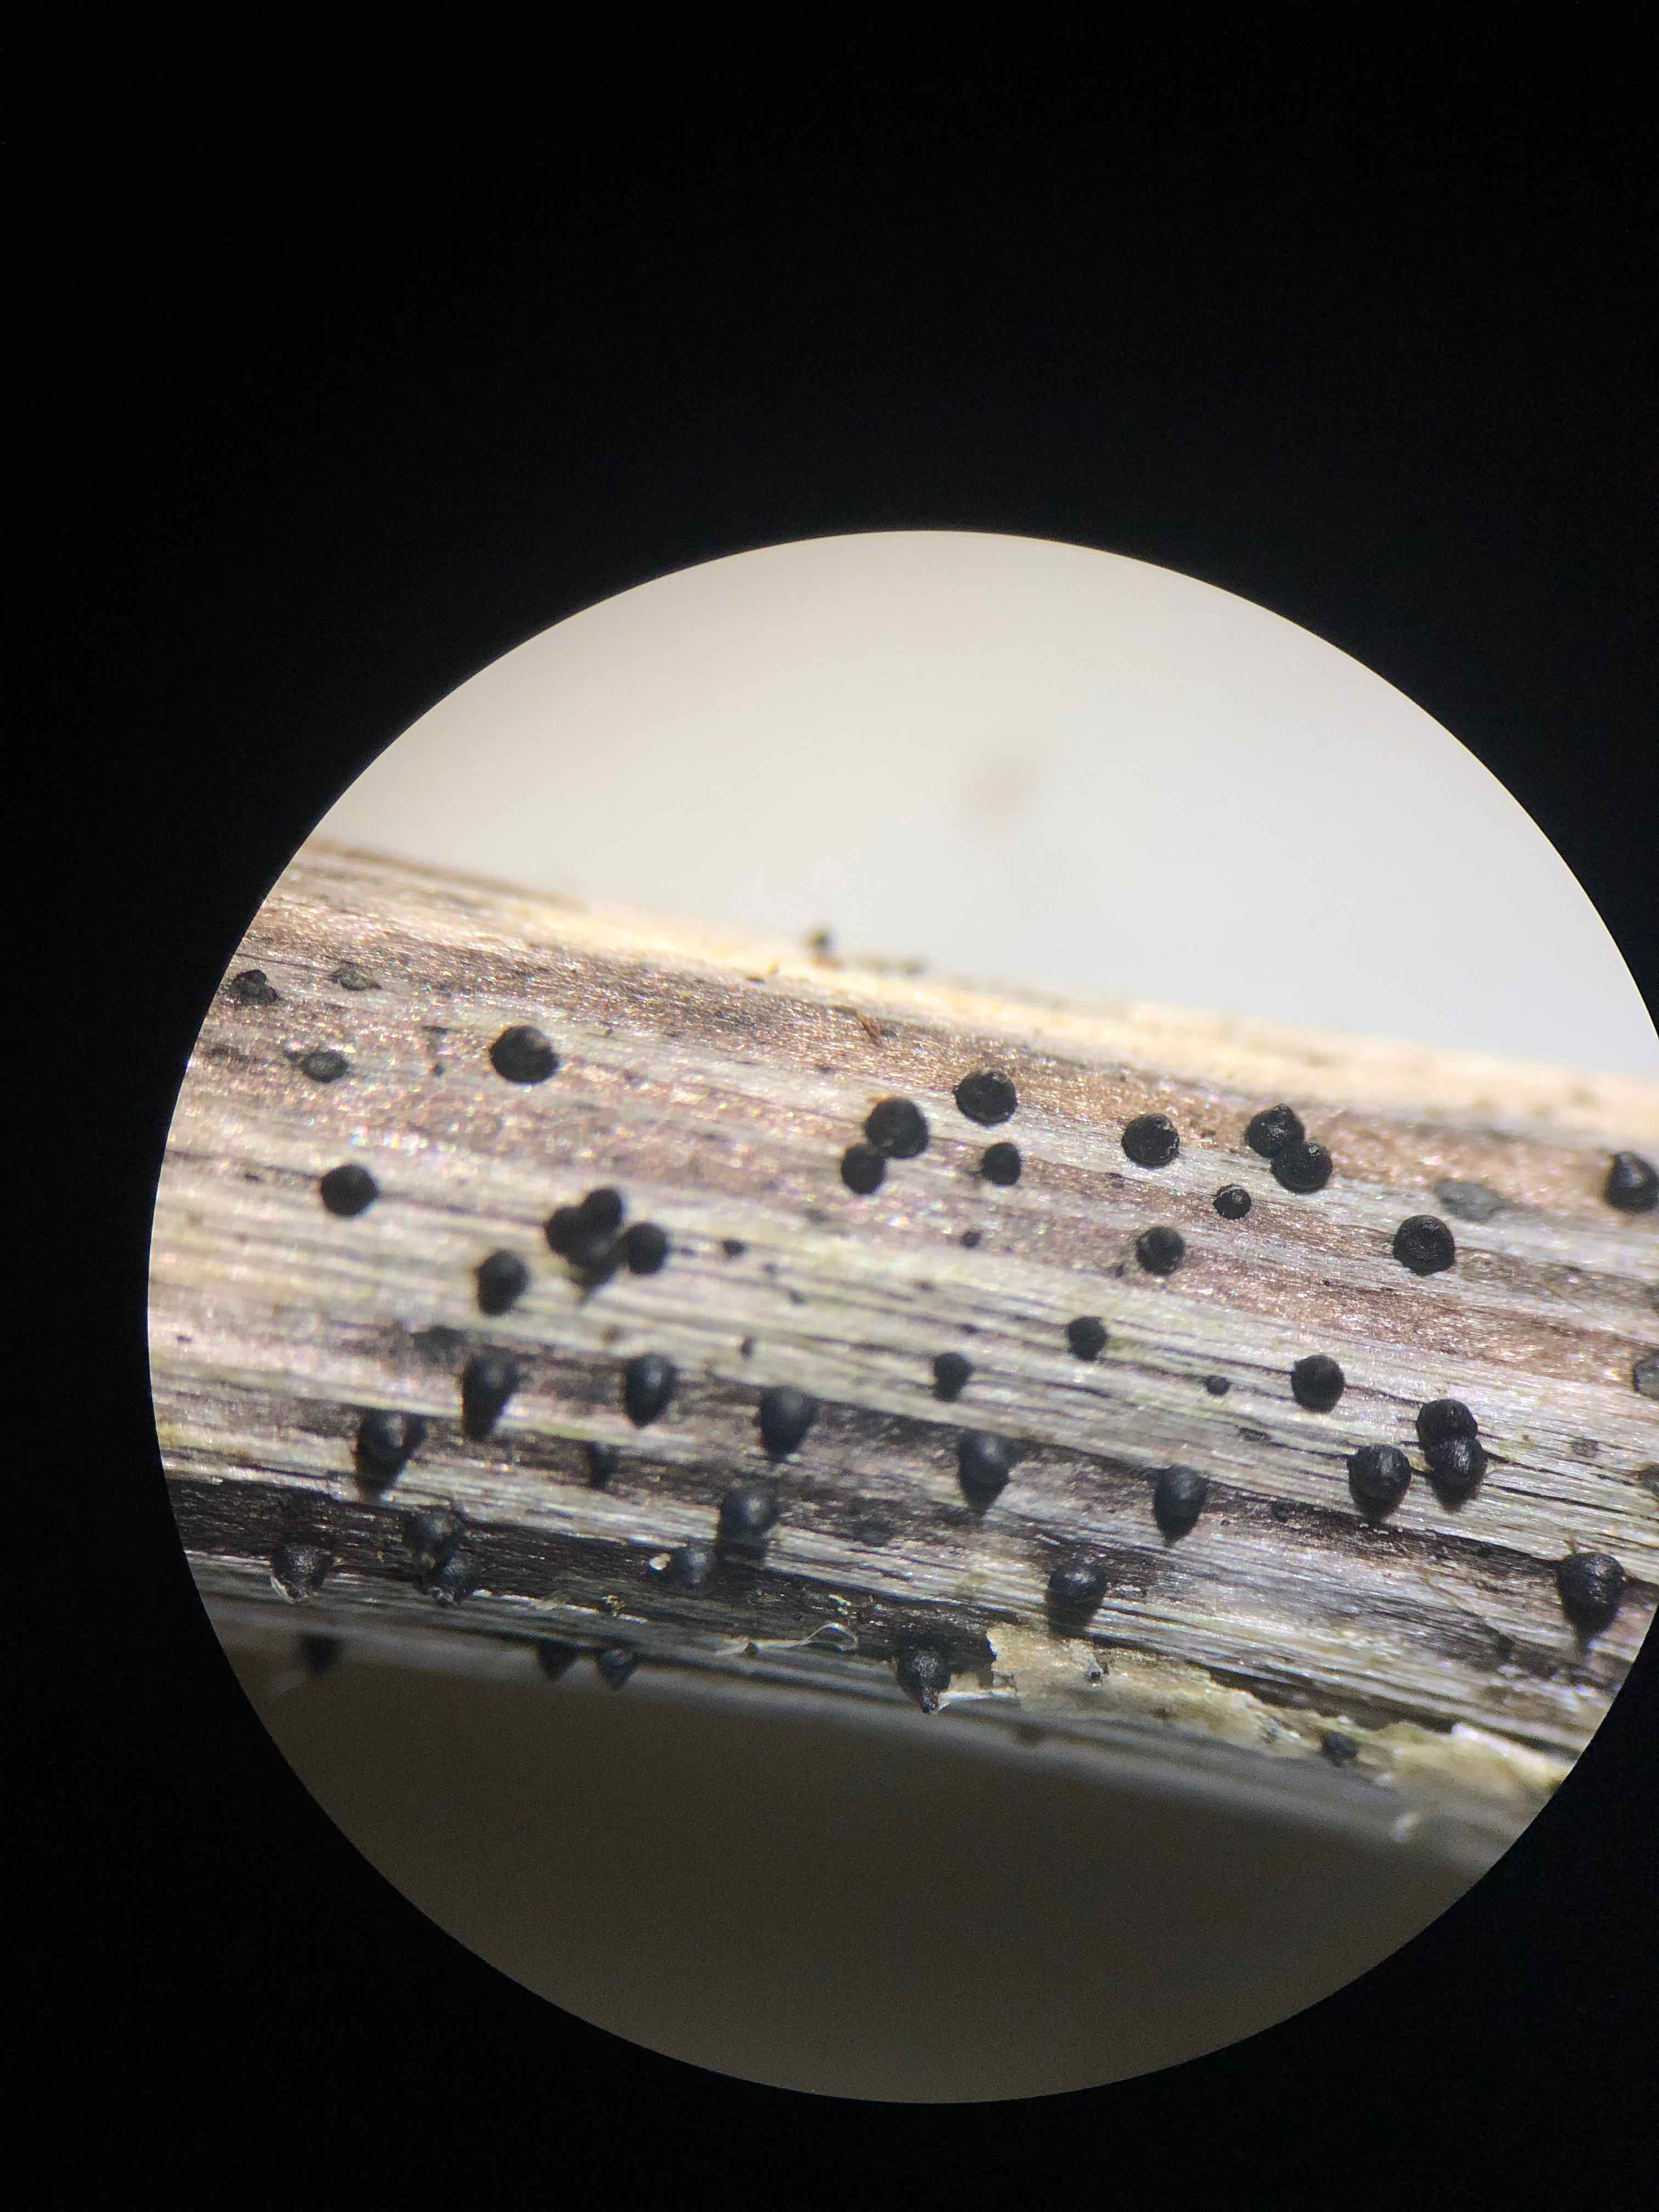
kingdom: Fungi
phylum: Ascomycota
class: Dothideomycetes
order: Pleosporales
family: Leptosphaeriaceae
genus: Leptosphaeria
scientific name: Leptosphaeria acuta
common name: spids kulkegle
